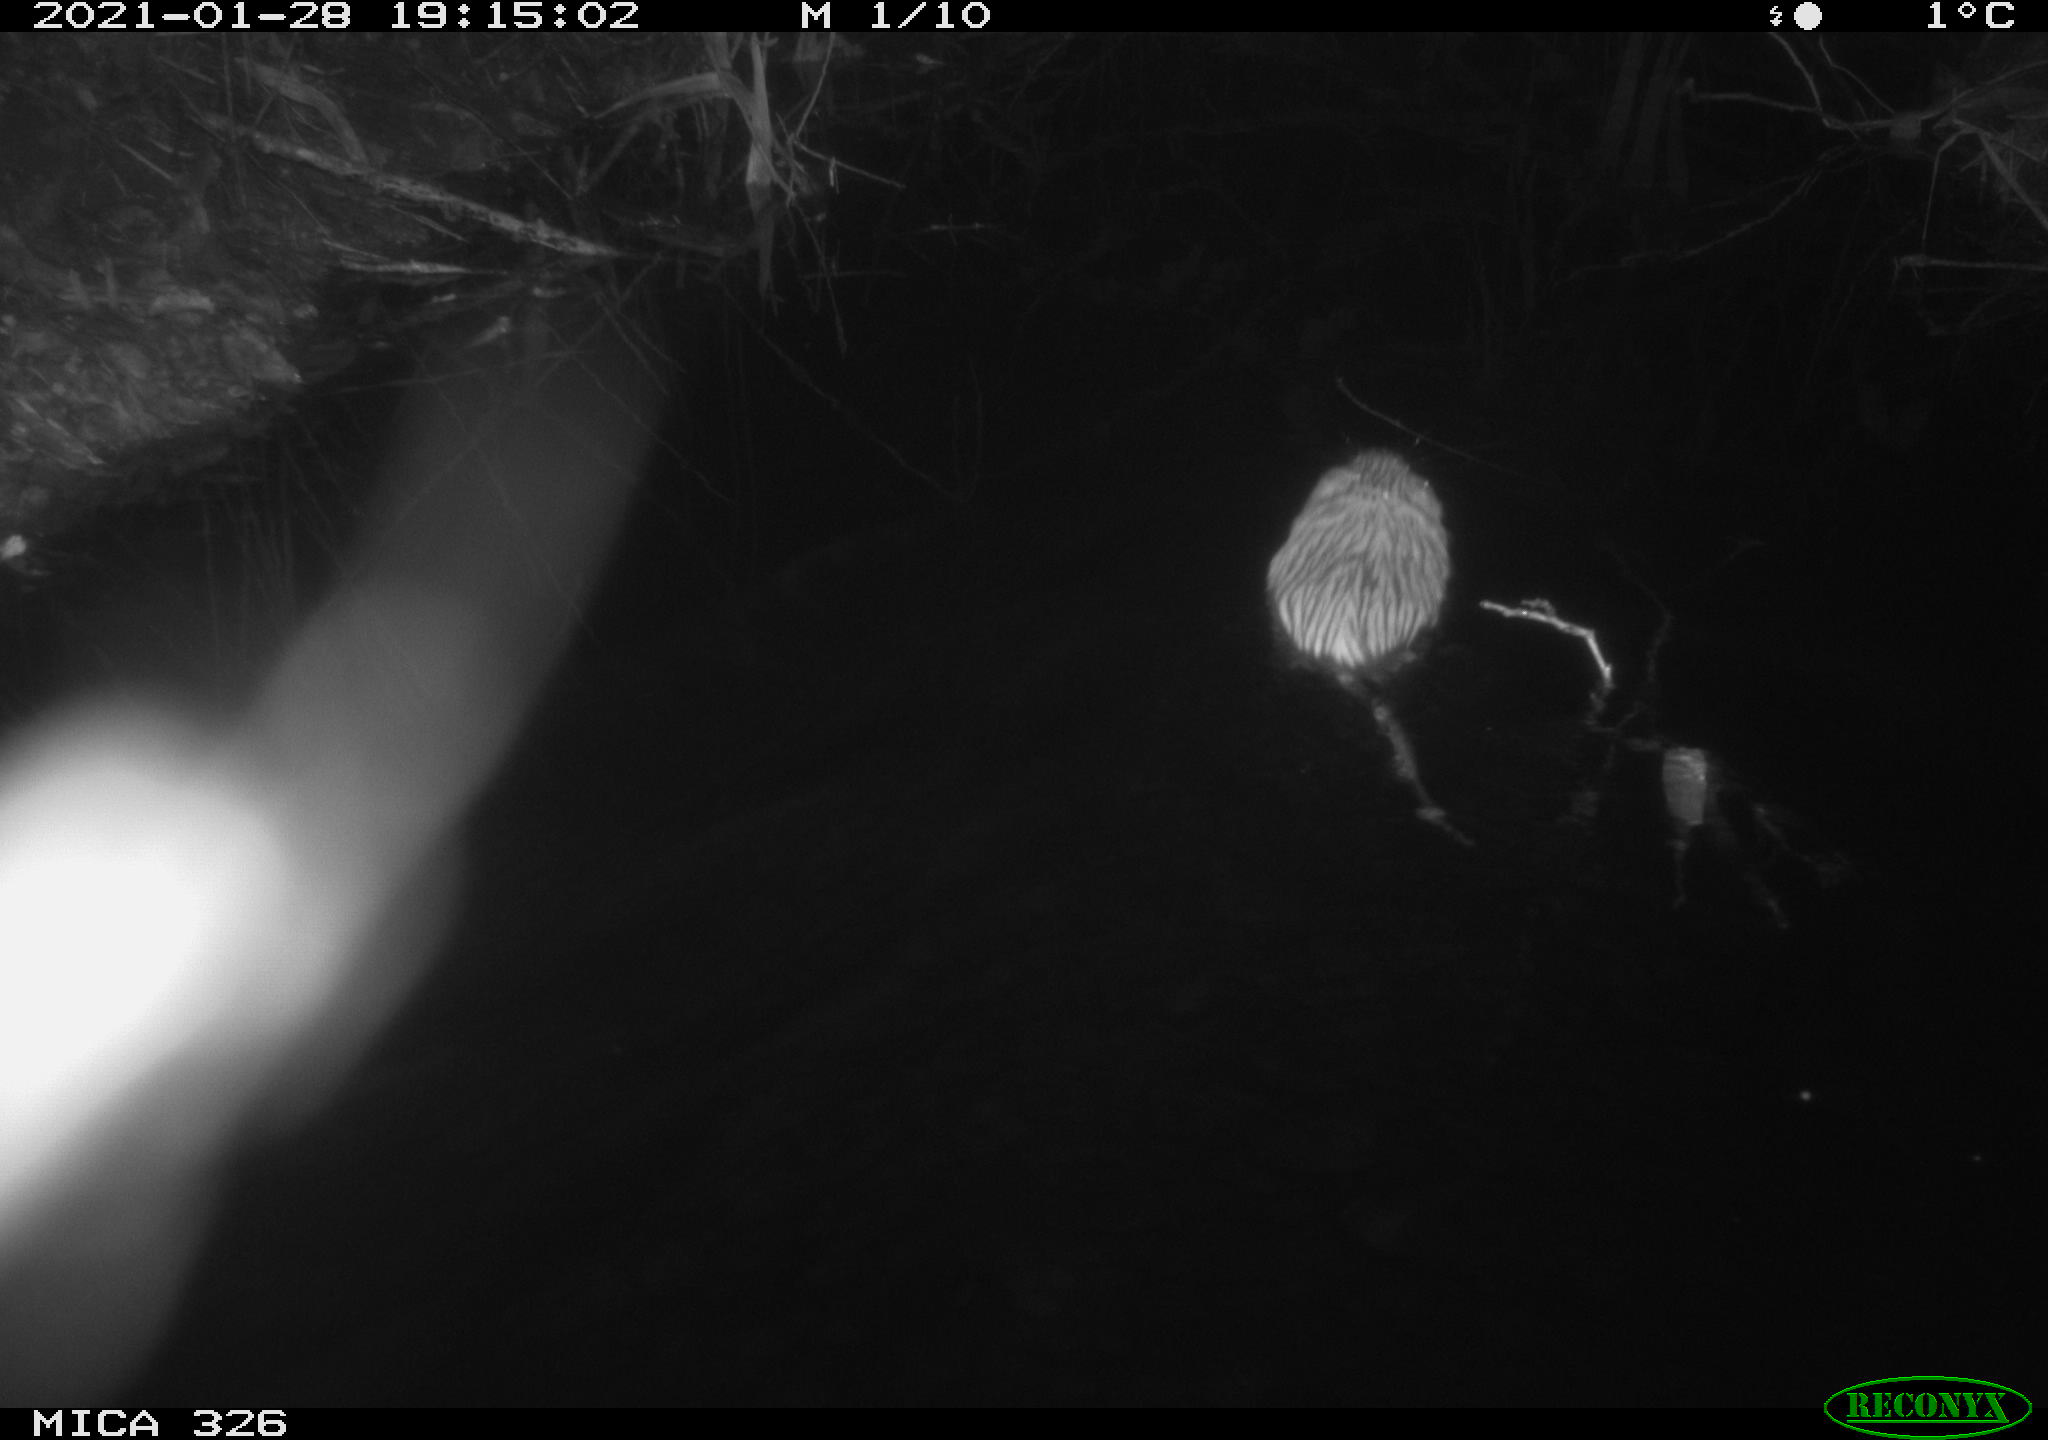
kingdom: Animalia
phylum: Chordata
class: Mammalia
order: Rodentia
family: Cricetidae
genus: Ondatra
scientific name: Ondatra zibethicus
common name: Muskrat
